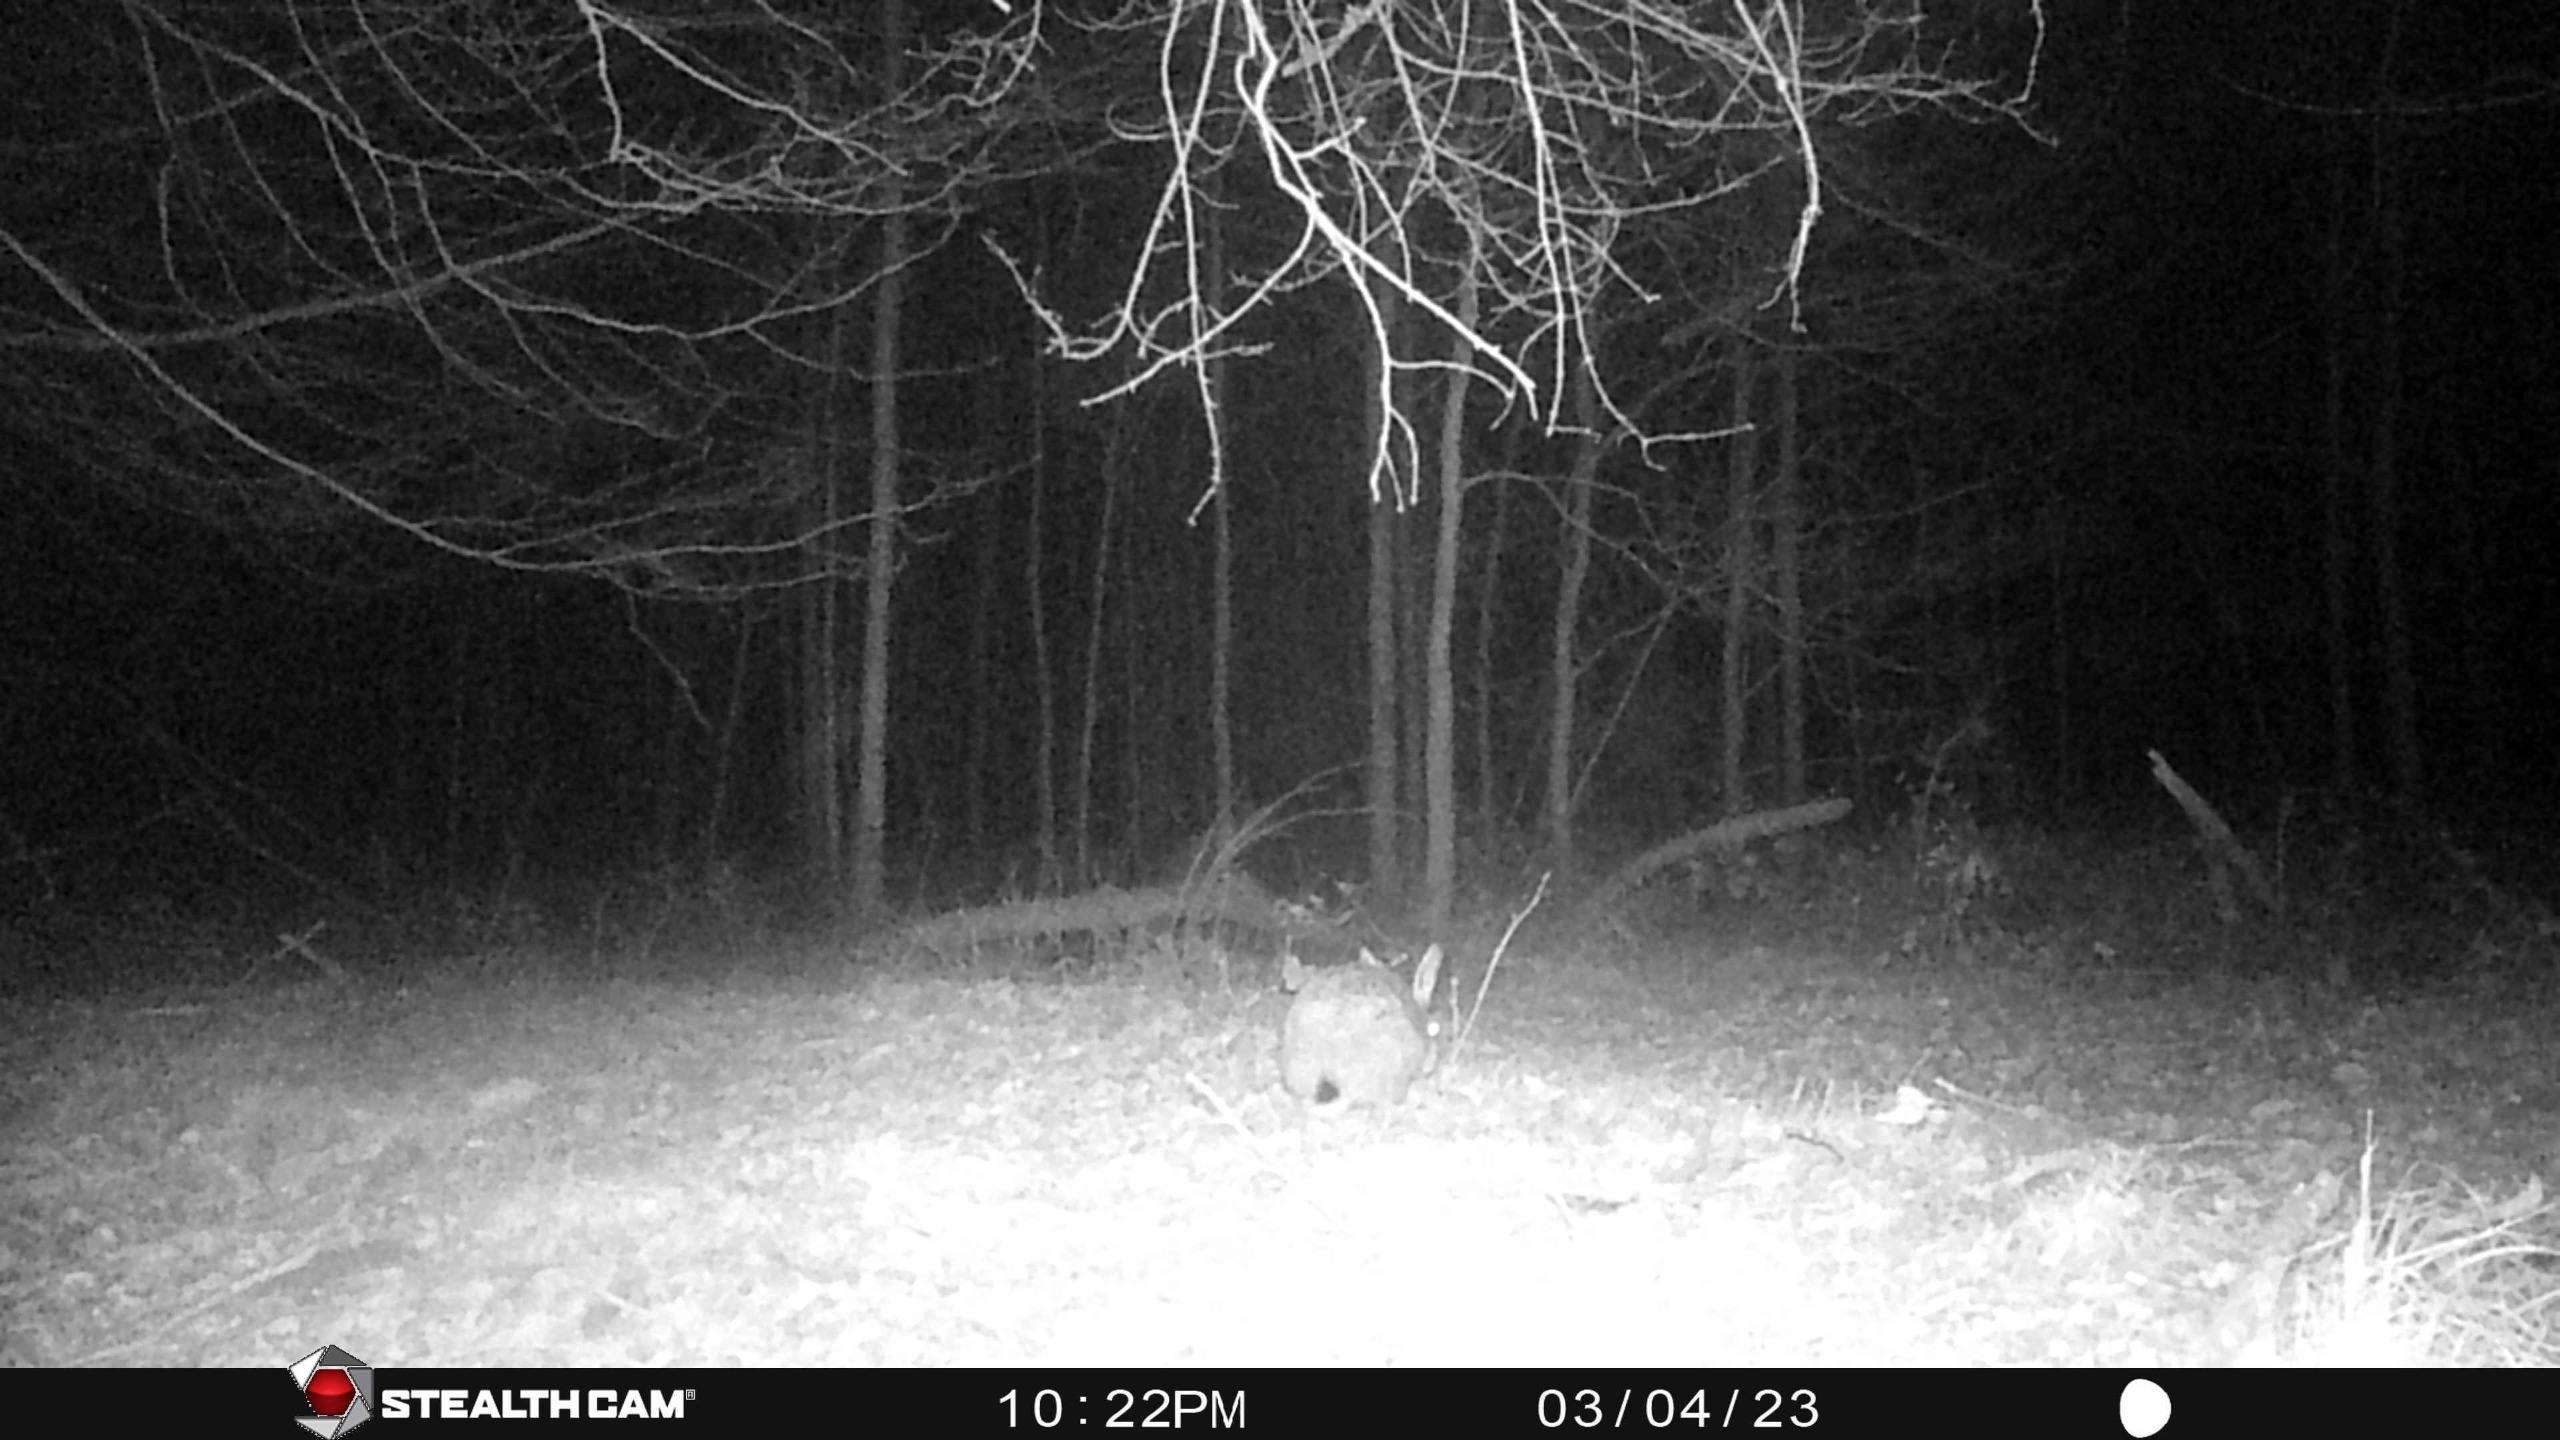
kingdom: Animalia
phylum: Chordata
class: Mammalia
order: Lagomorpha
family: Leporidae
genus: Lepus
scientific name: Lepus europaeus
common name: Hare
